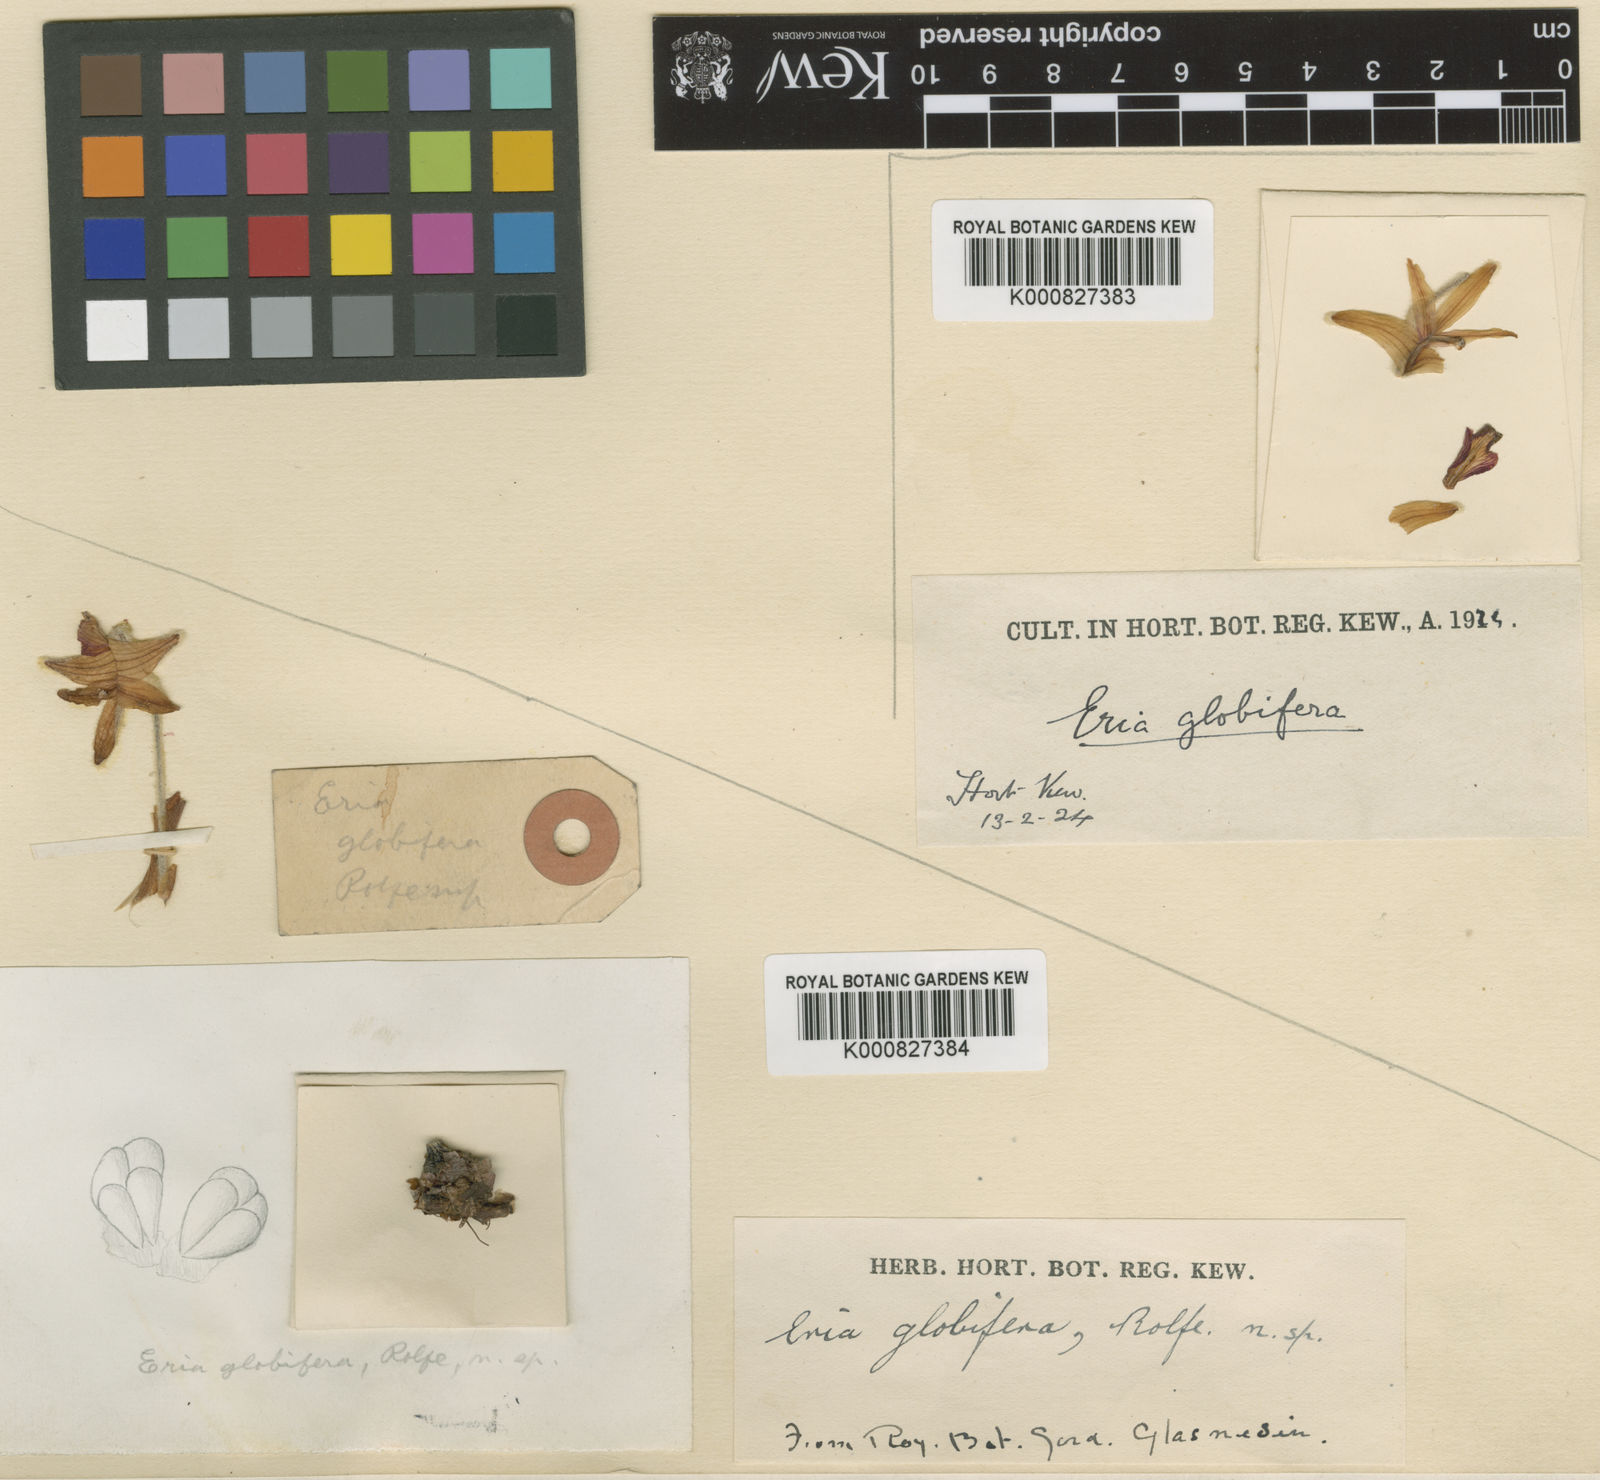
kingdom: Plantae
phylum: Tracheophyta
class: Liliopsida
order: Asparagales
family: Orchidaceae
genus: Campanulorchis
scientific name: Campanulorchis globifera
